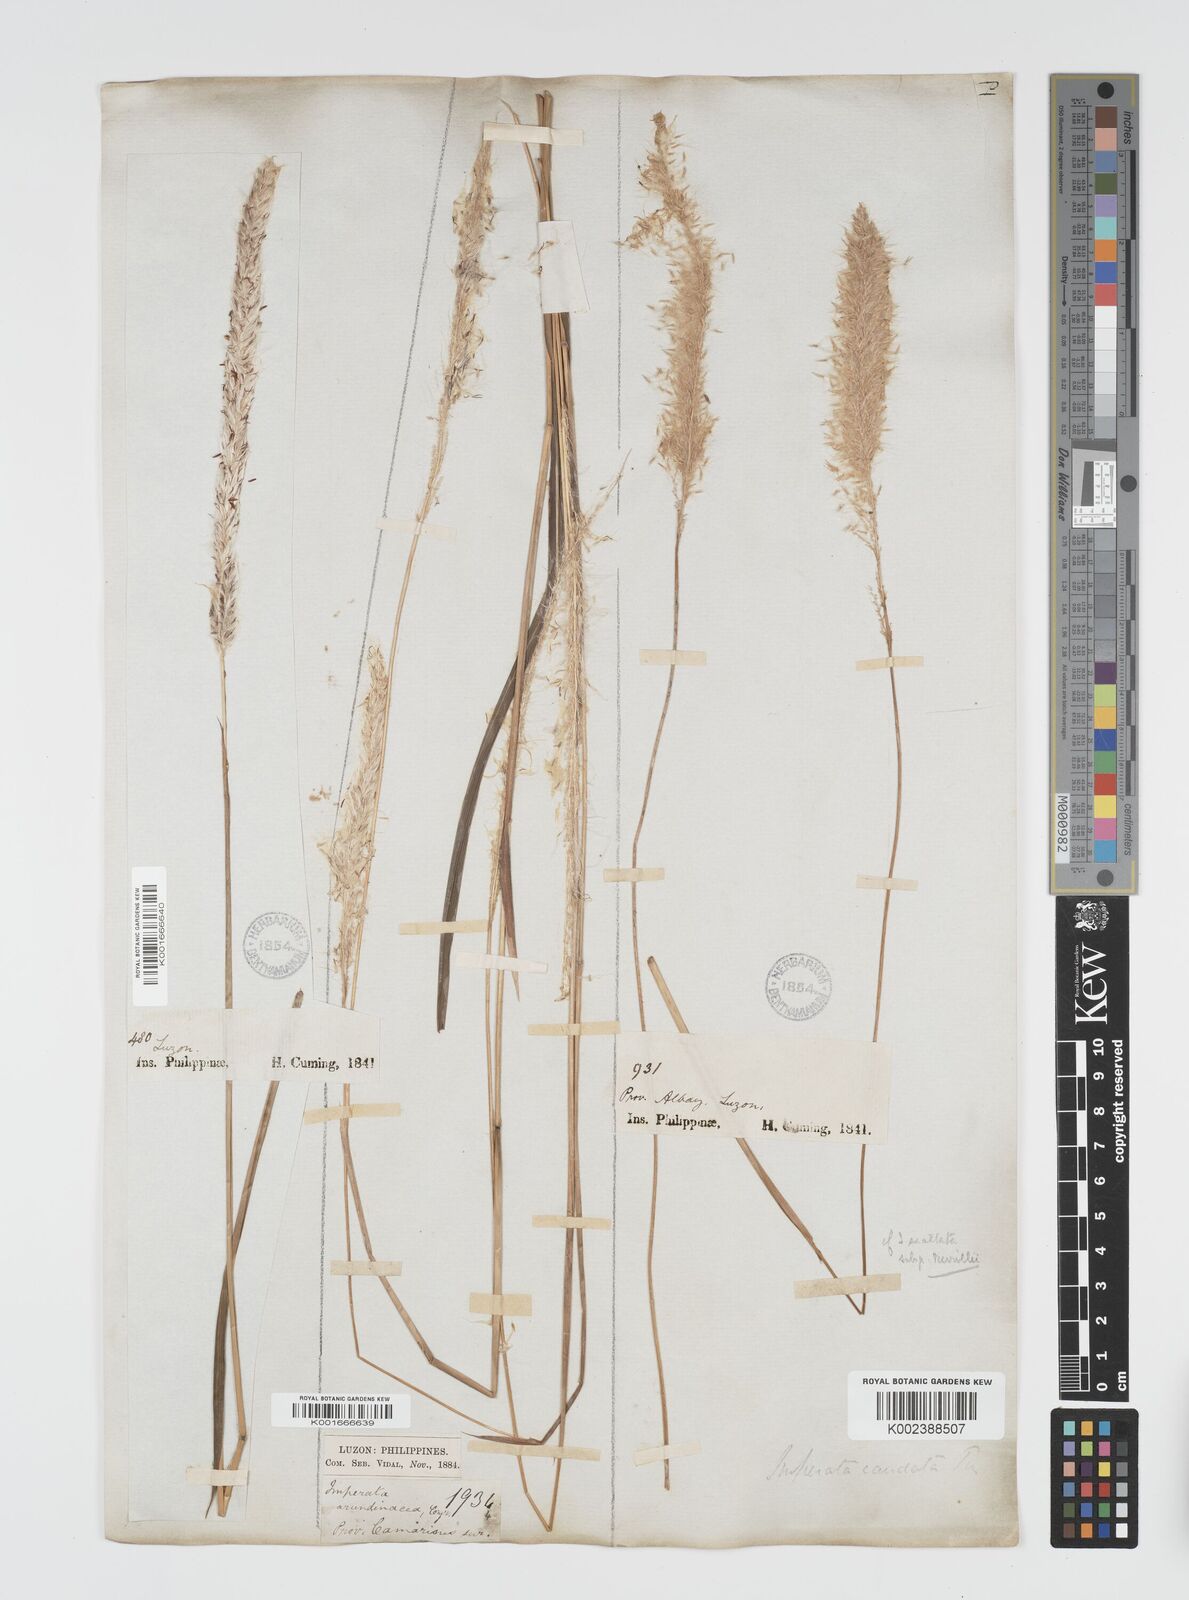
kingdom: Plantae
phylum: Tracheophyta
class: Liliopsida
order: Poales
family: Poaceae
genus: Imperata
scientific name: Imperata cylindrica
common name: Cogongrass
